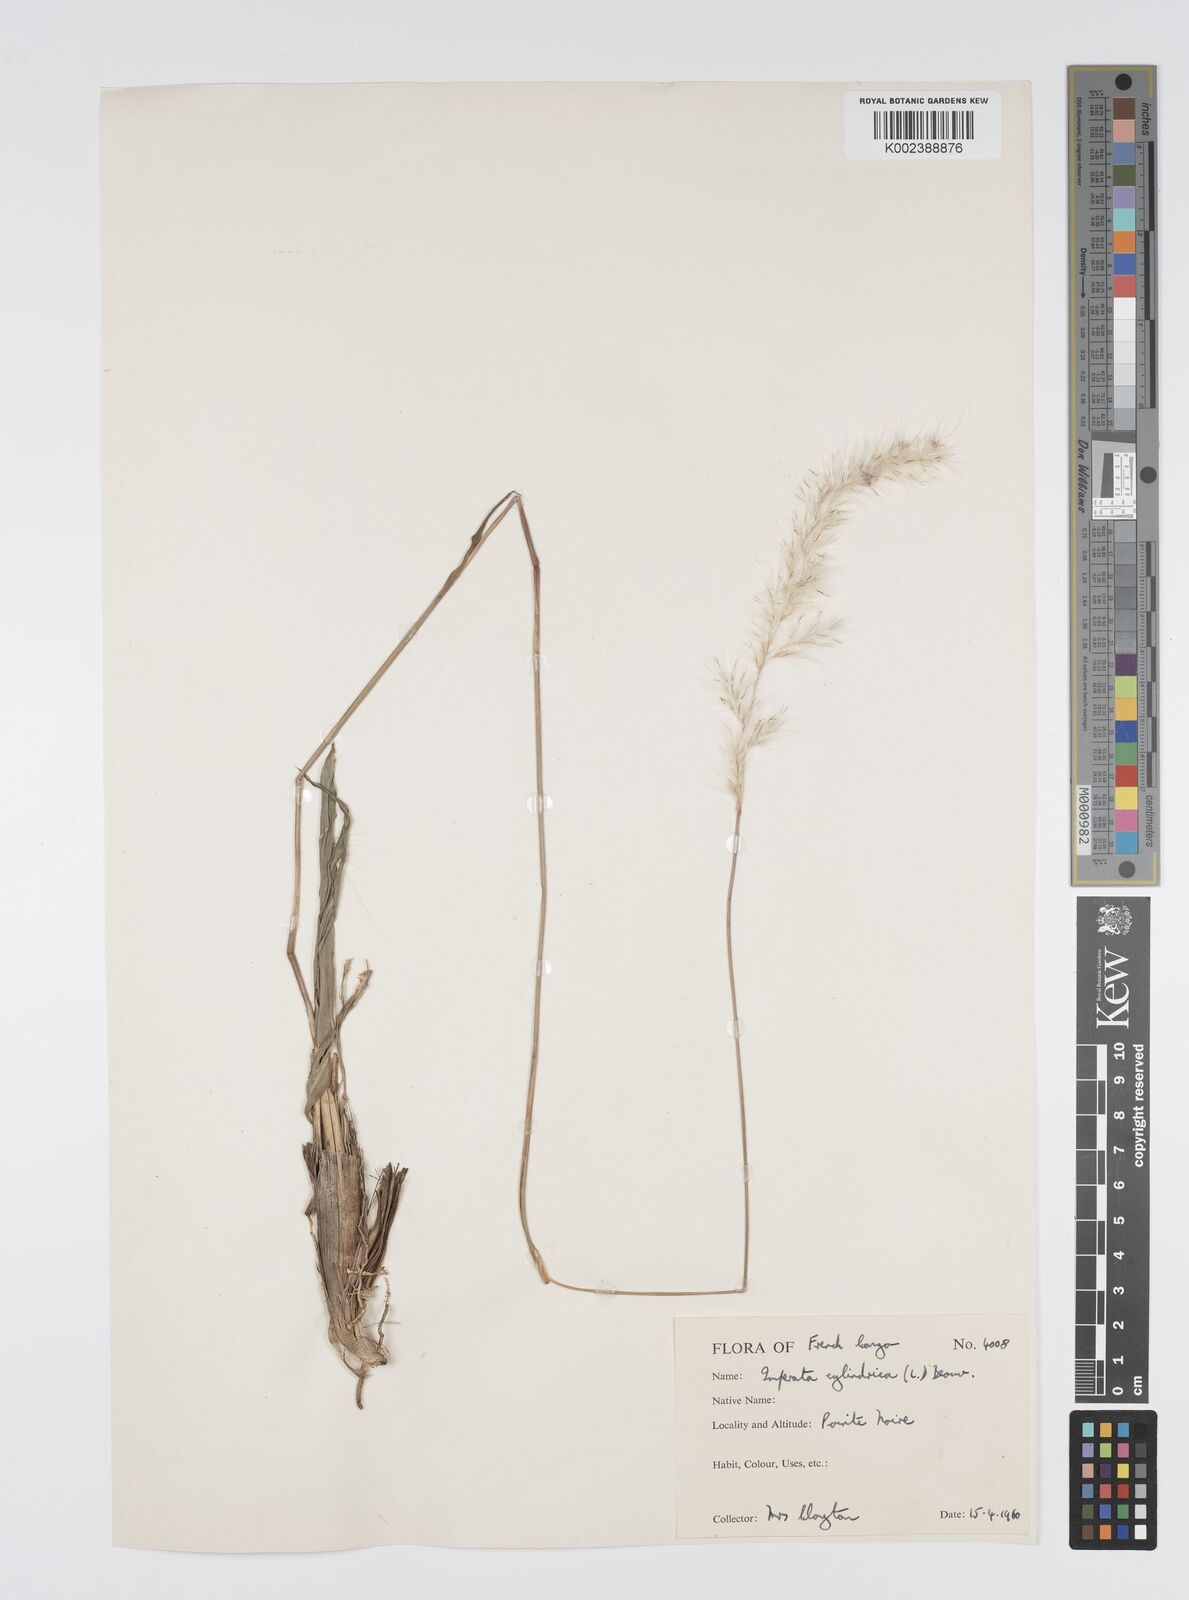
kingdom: Plantae
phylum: Tracheophyta
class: Liliopsida
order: Poales
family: Poaceae
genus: Imperata
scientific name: Imperata cylindrica
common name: Cogongrass
